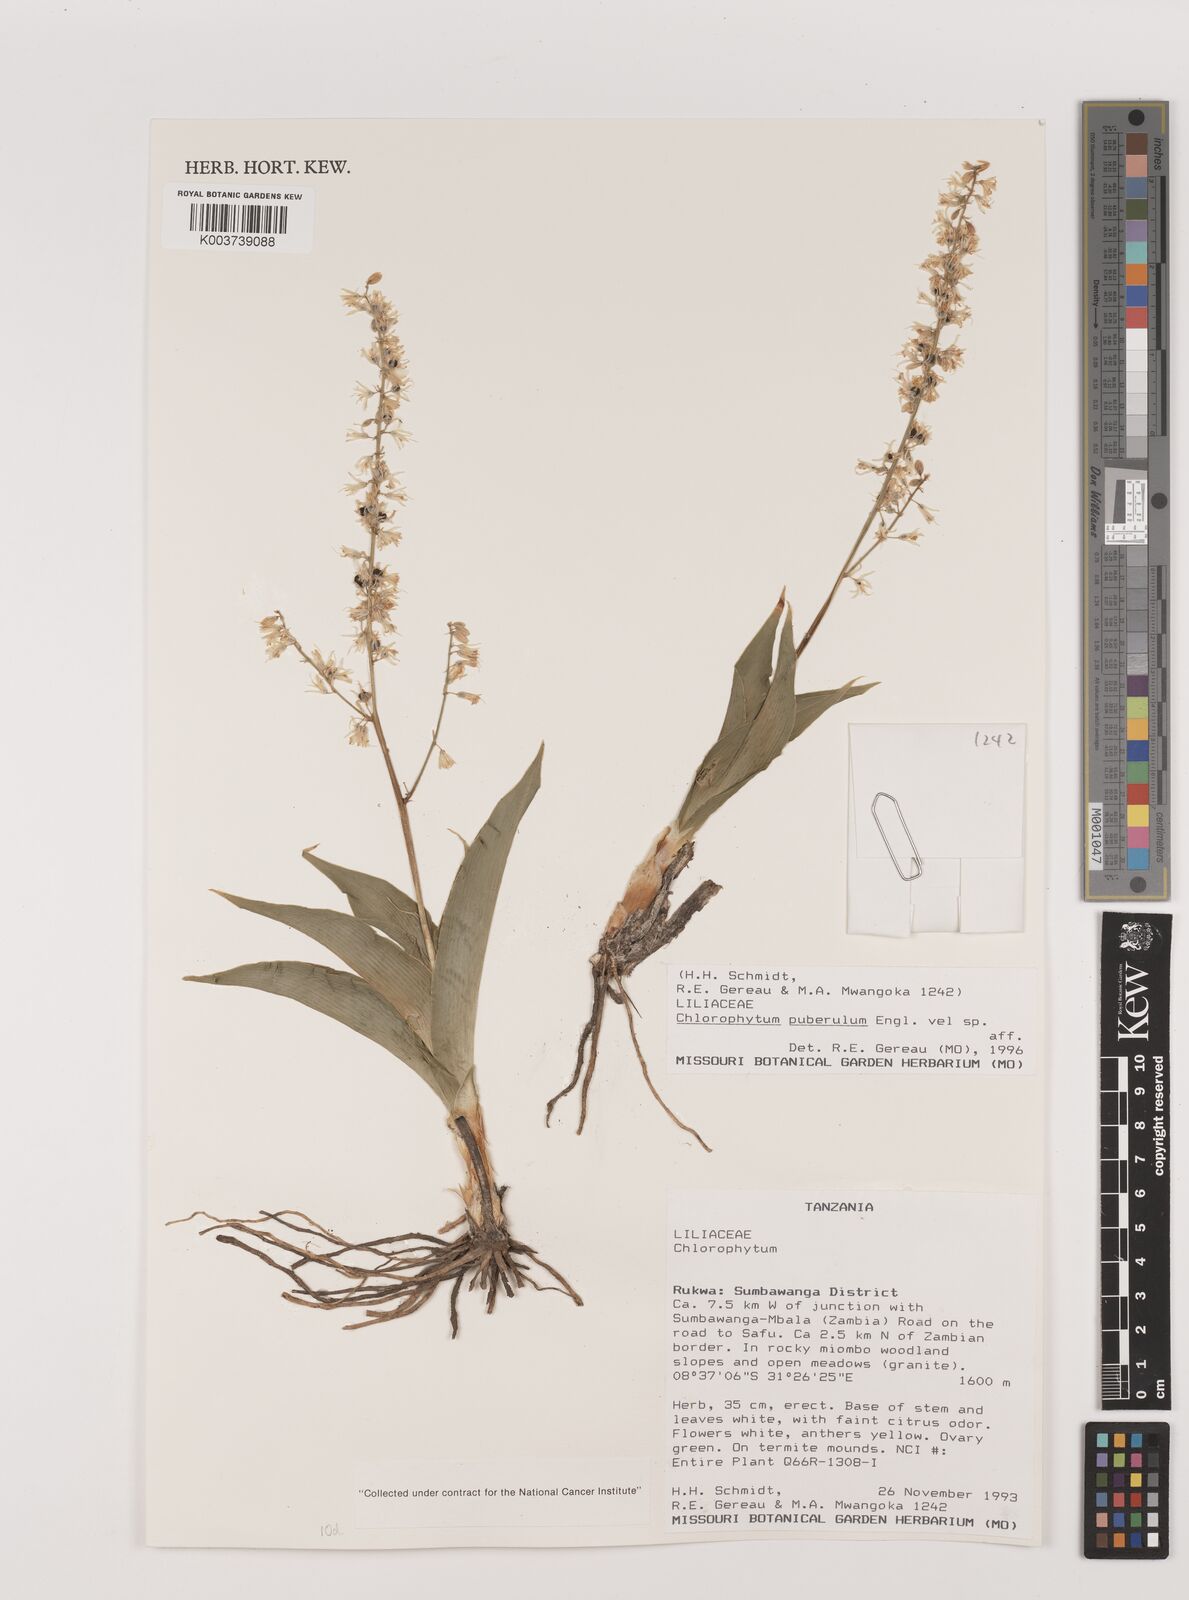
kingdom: Plantae
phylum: Tracheophyta
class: Liliopsida
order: Asparagales
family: Asparagaceae
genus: Chlorophytum
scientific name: Chlorophytum gallabatense
